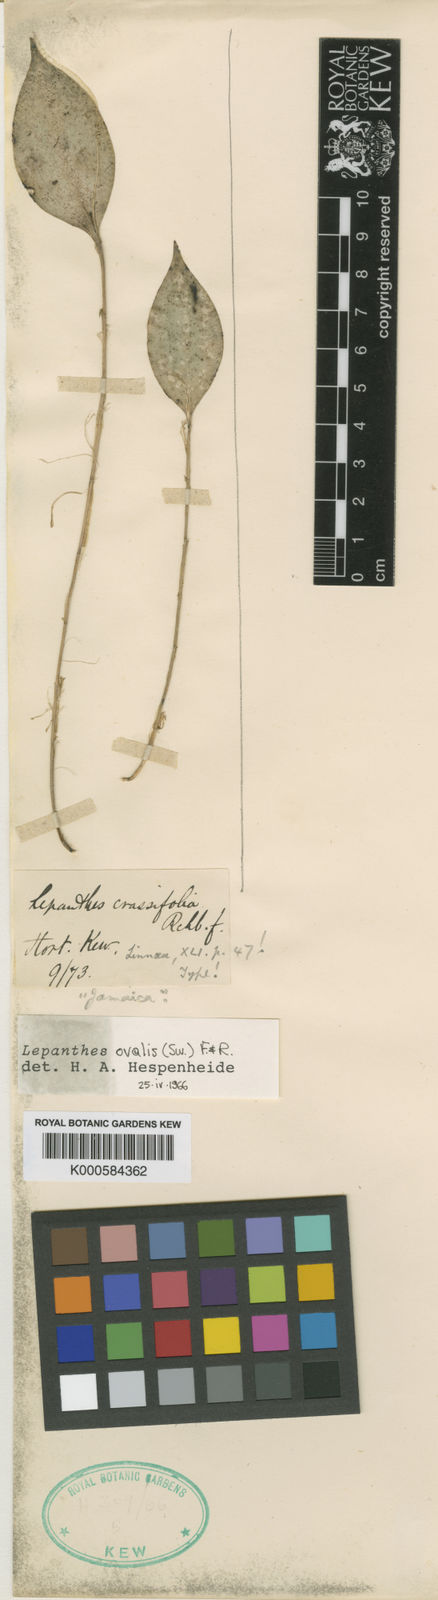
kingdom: Plantae
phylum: Tracheophyta
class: Liliopsida
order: Asparagales
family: Orchidaceae
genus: Lepanthes
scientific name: Lepanthes ovalis
